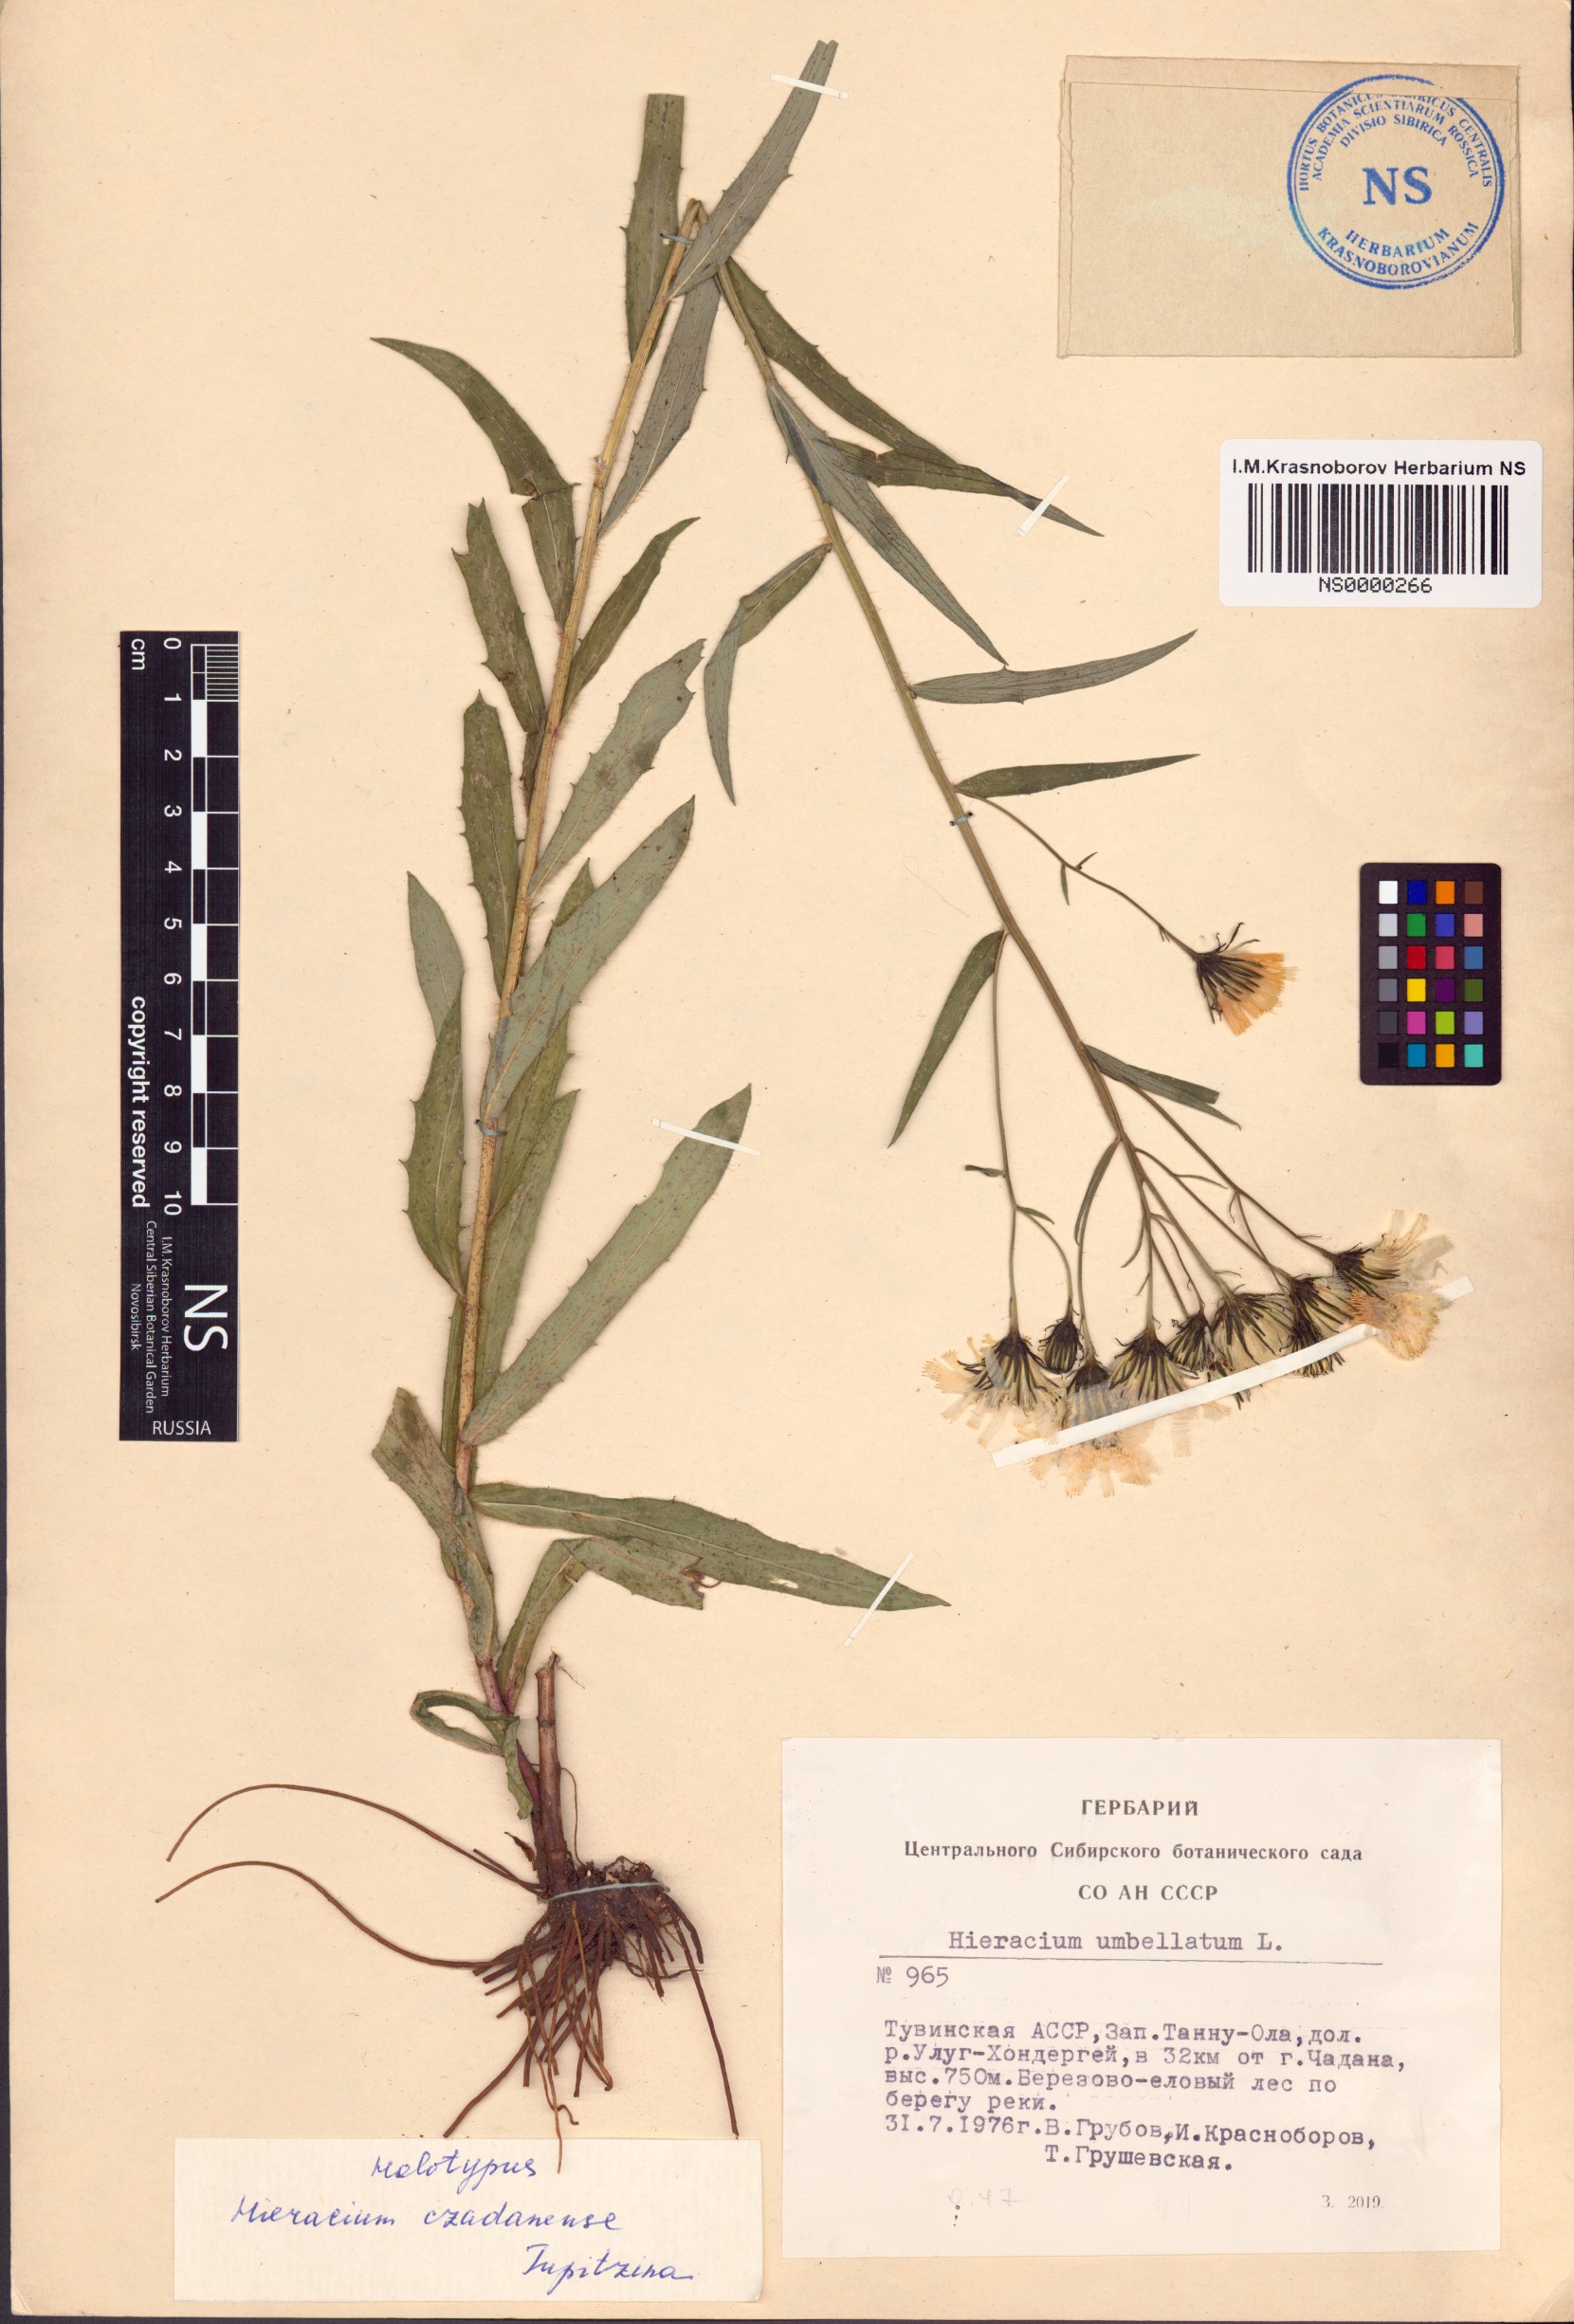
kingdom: Plantae
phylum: Tracheophyta
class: Magnoliopsida
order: Asterales
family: Asteraceae
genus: Hieracium
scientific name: Hieracium mongolicum
